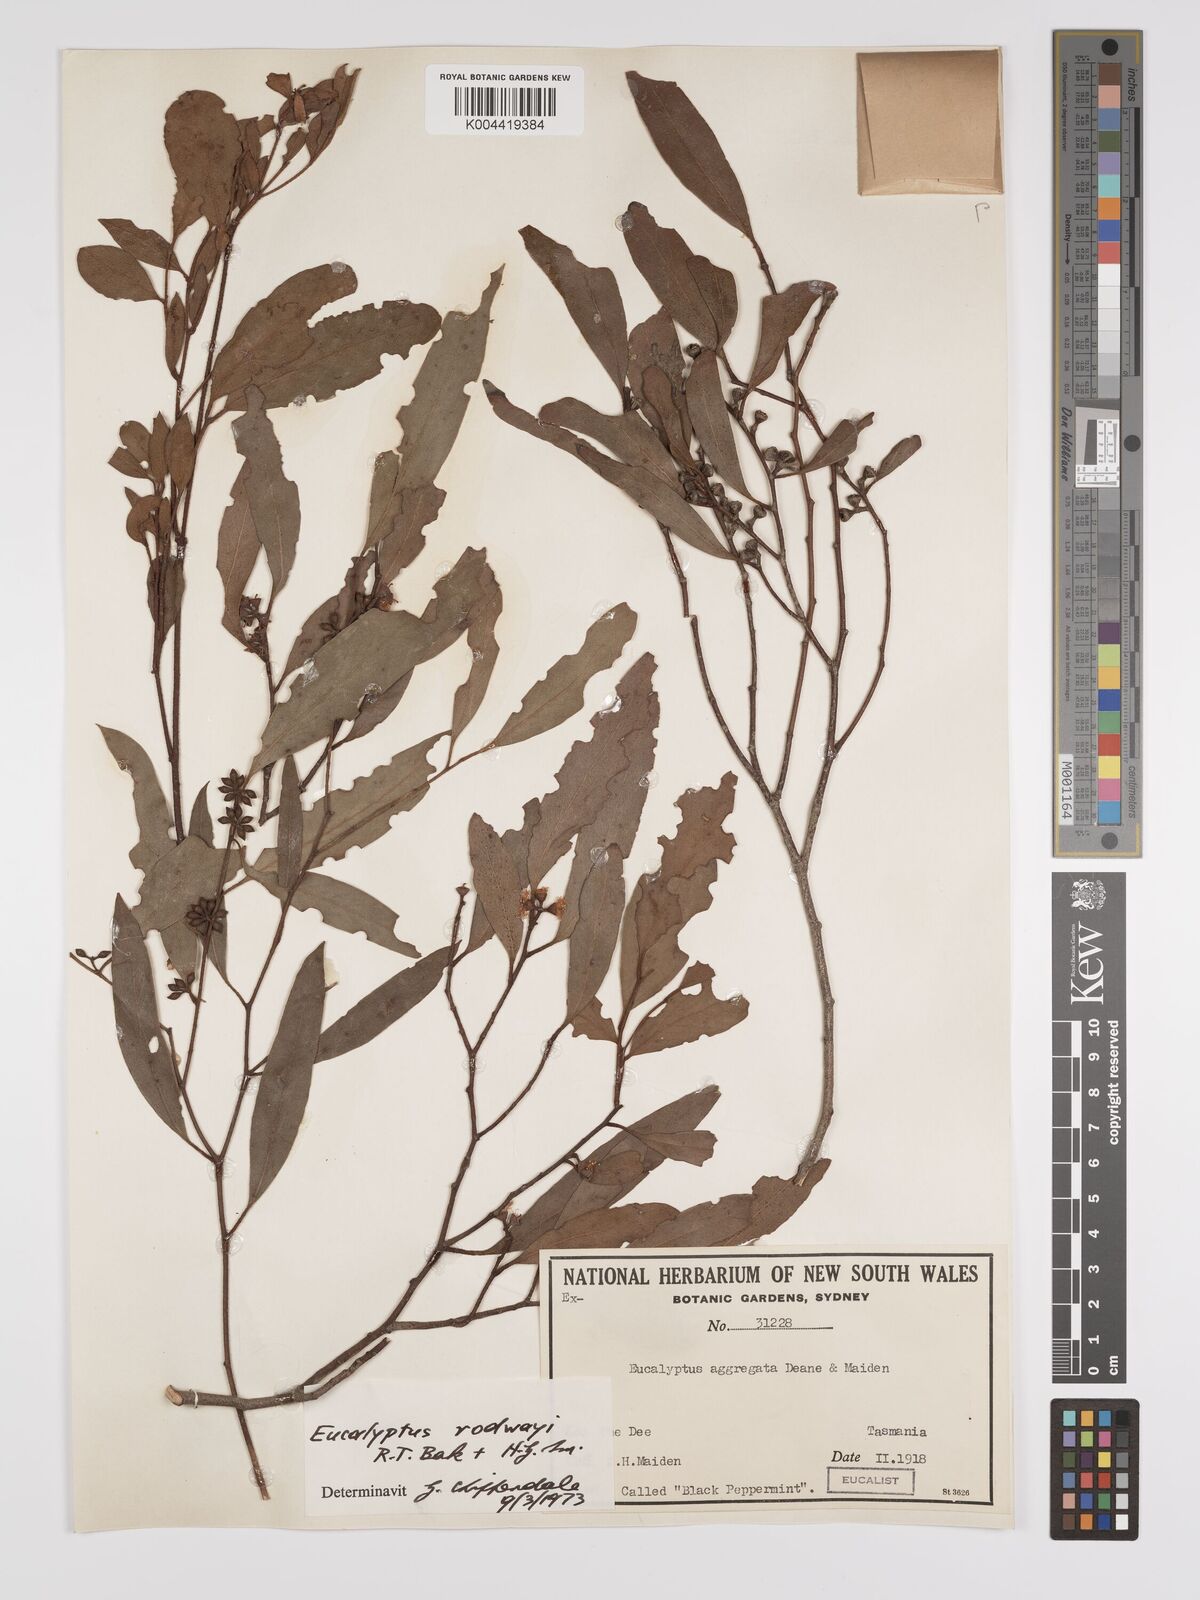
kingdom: Plantae
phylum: Tracheophyta
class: Magnoliopsida
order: Myrtales
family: Myrtaceae
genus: Eucalyptus
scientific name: Eucalyptus rodwayi
